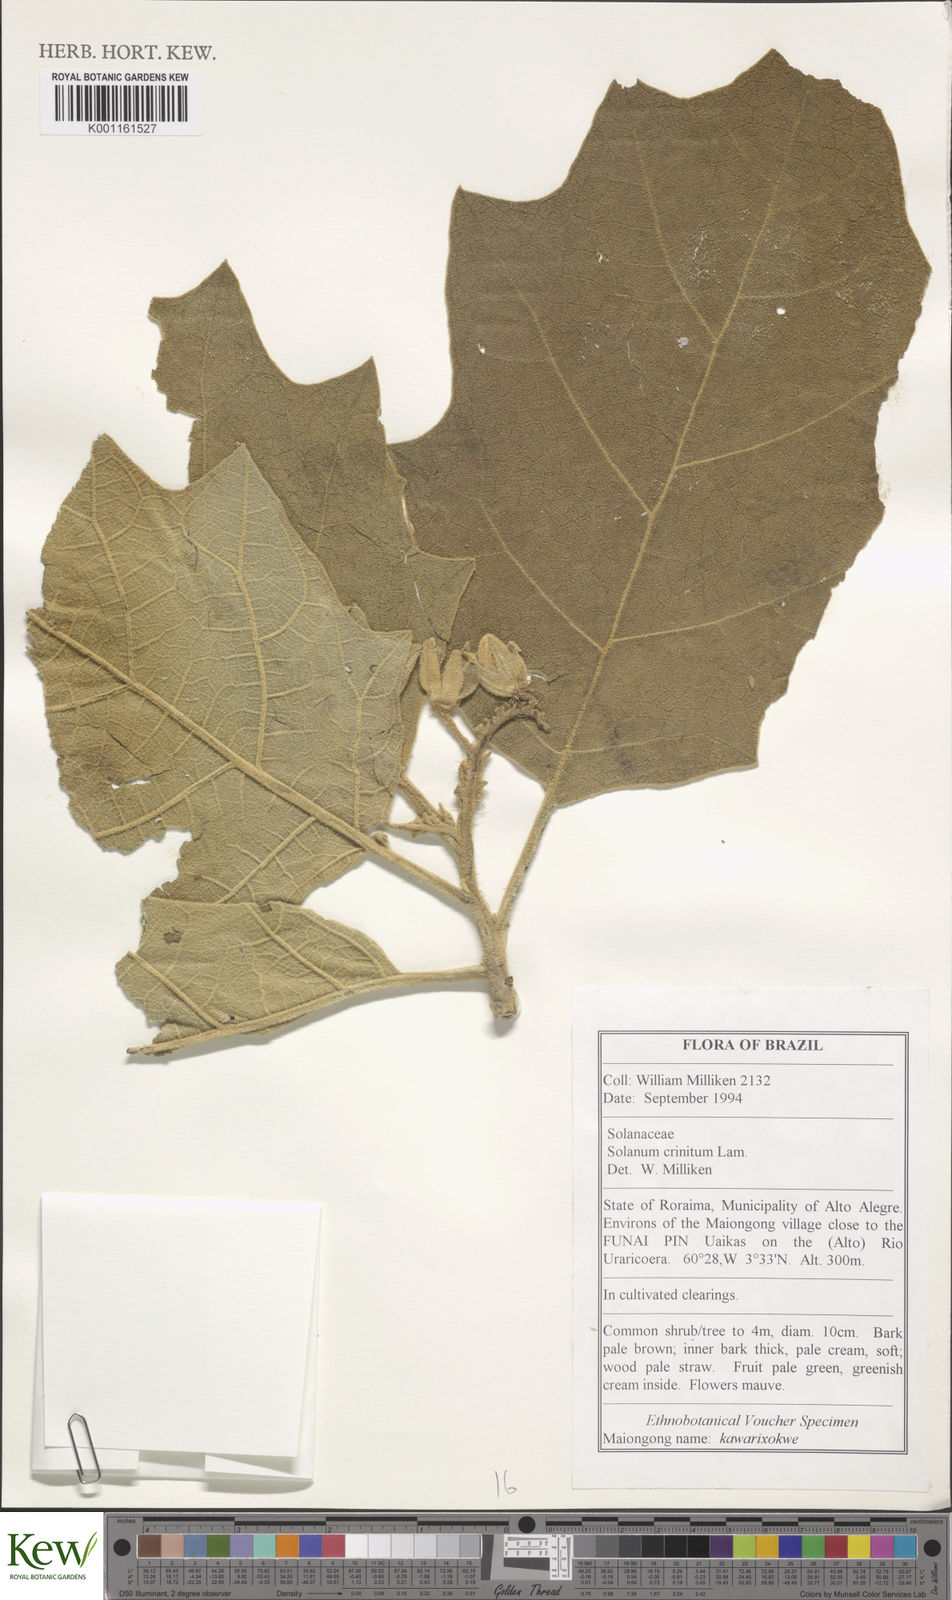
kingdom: Plantae
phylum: Tracheophyta
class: Magnoliopsida
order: Solanales
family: Solanaceae
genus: Solanum
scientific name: Solanum crinitum
